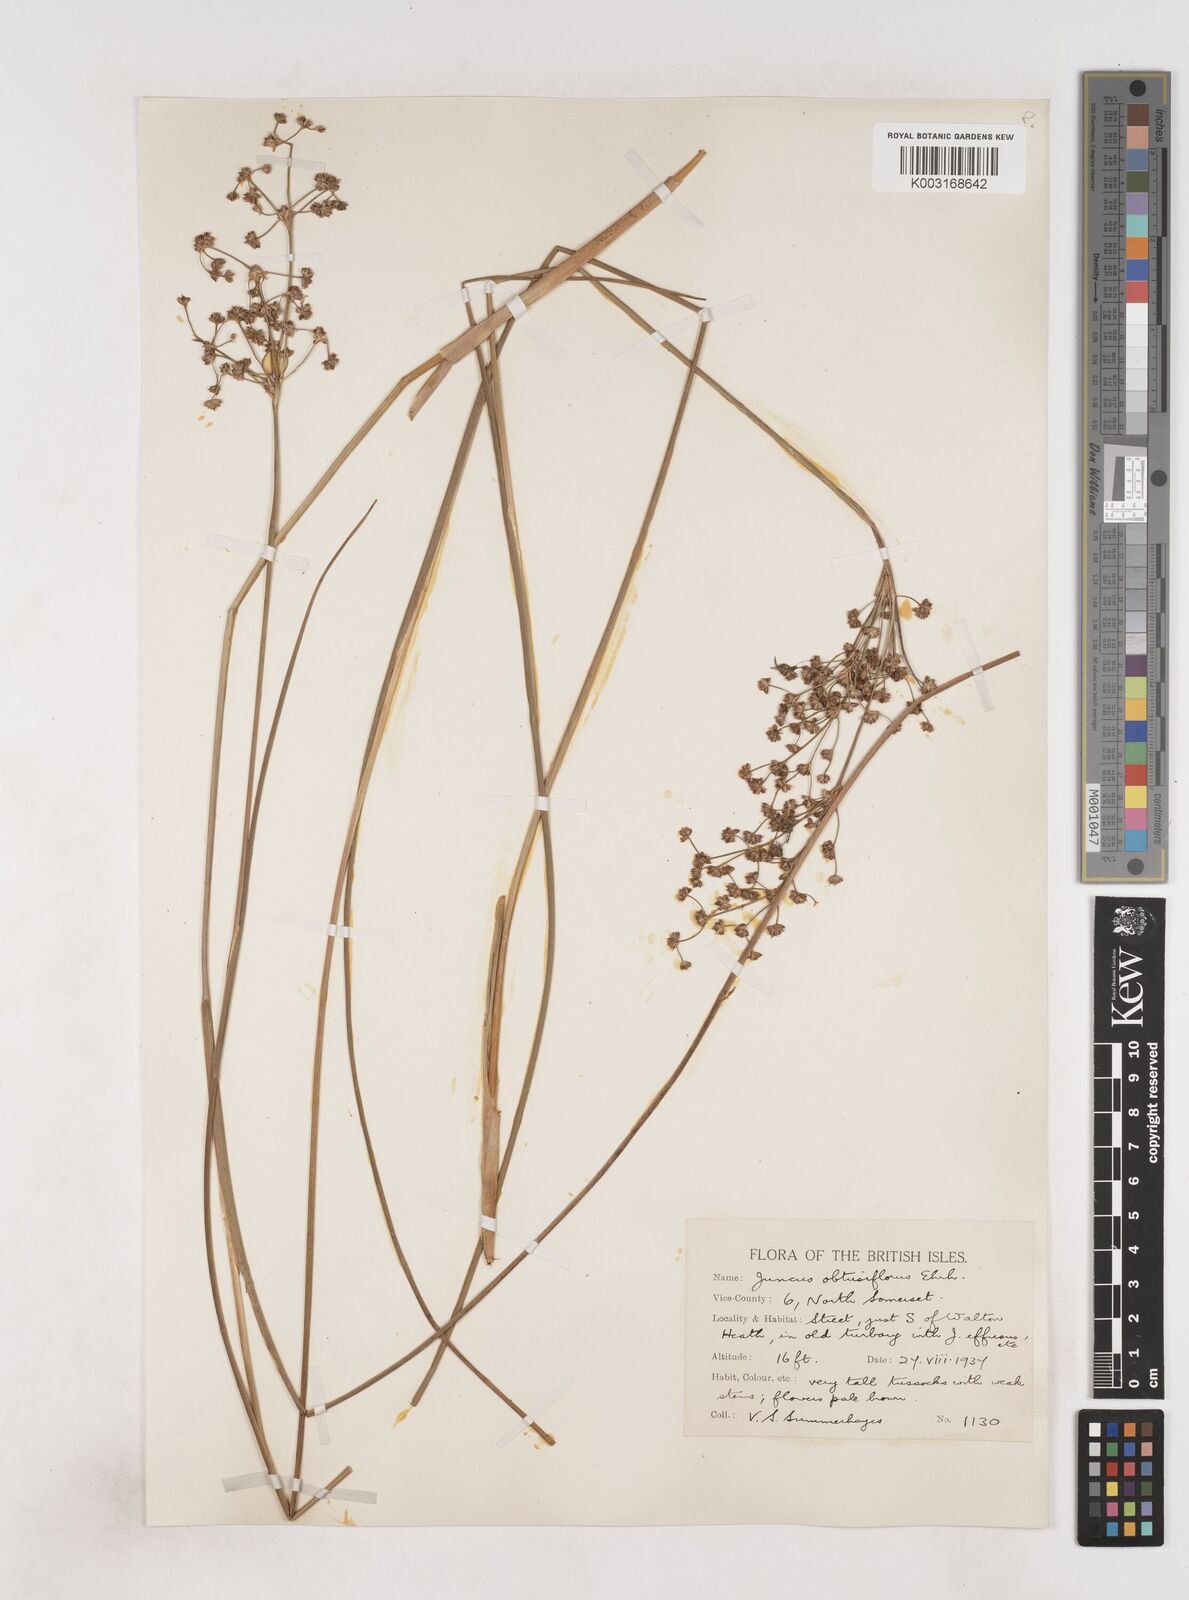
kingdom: Plantae
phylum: Tracheophyta
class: Liliopsida
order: Poales
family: Juncaceae
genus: Juncus
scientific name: Juncus subnodulosus
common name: Blunt-flowered rush
